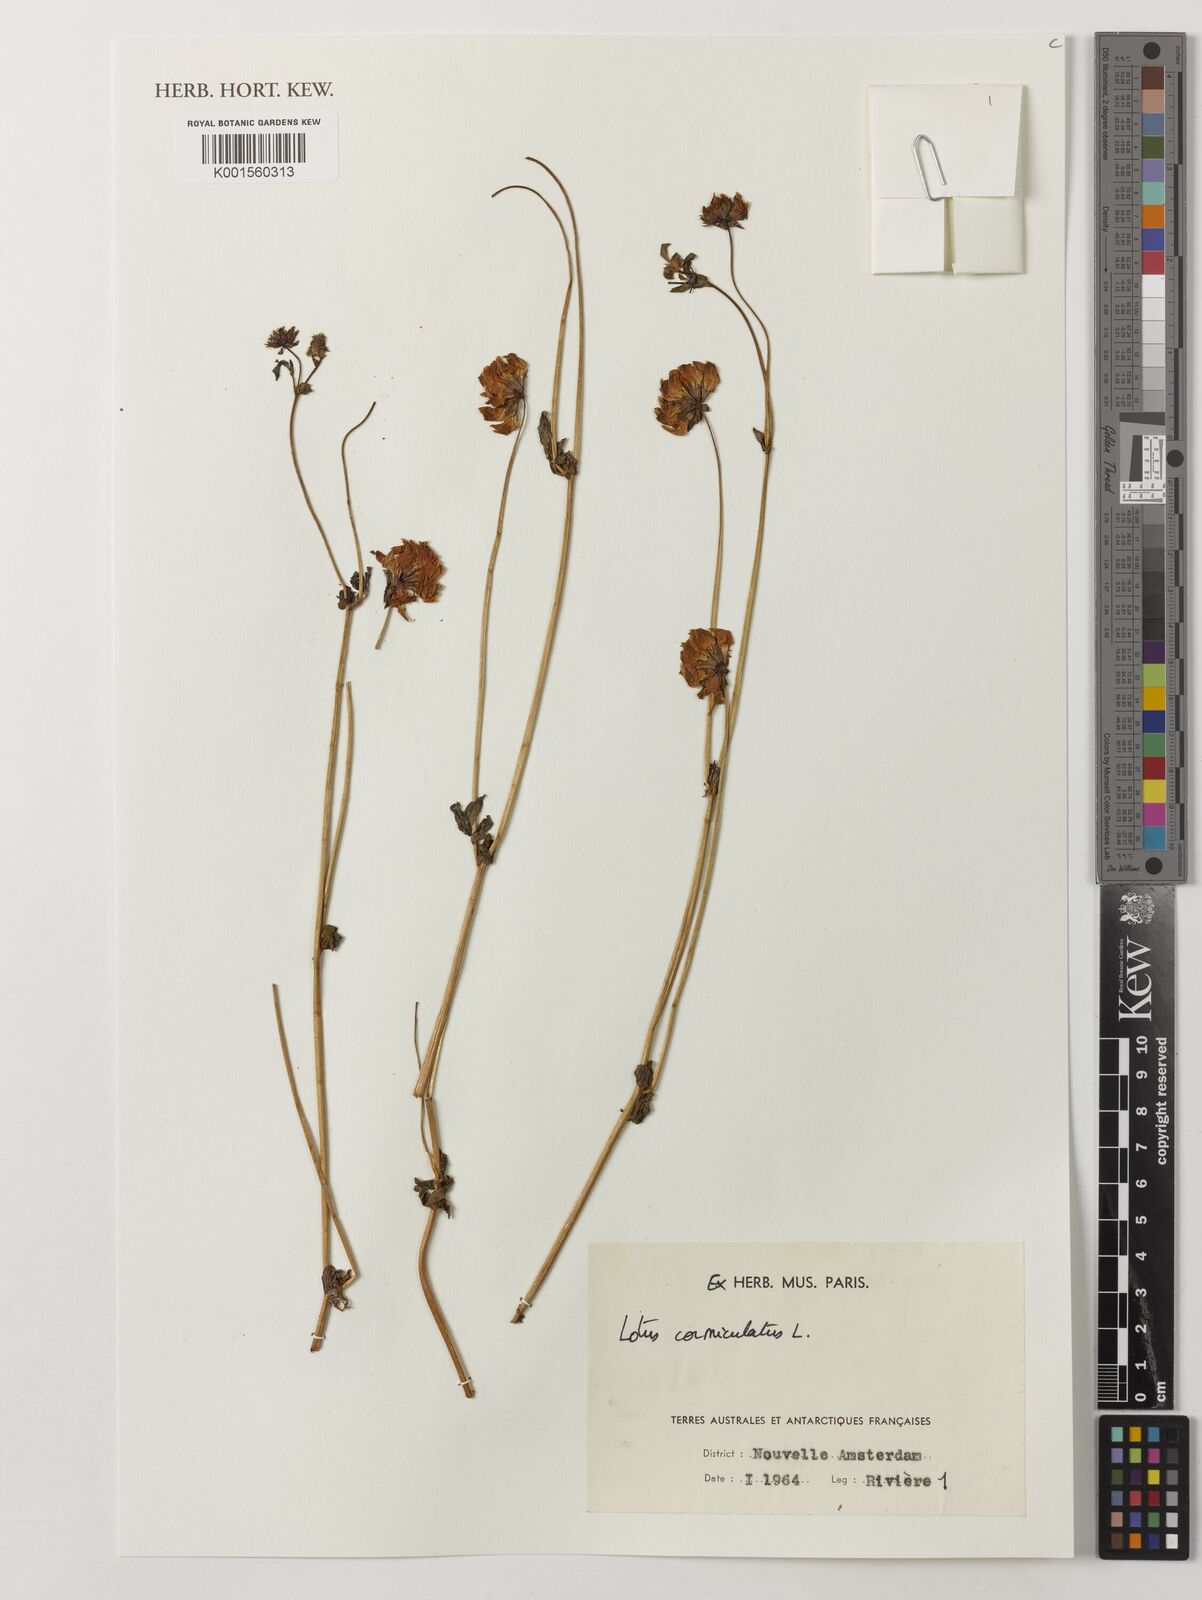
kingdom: Plantae
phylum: Tracheophyta
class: Magnoliopsida
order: Fabales
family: Fabaceae
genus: Lotus
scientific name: Lotus corniculatus
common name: Common bird's-foot-trefoil
